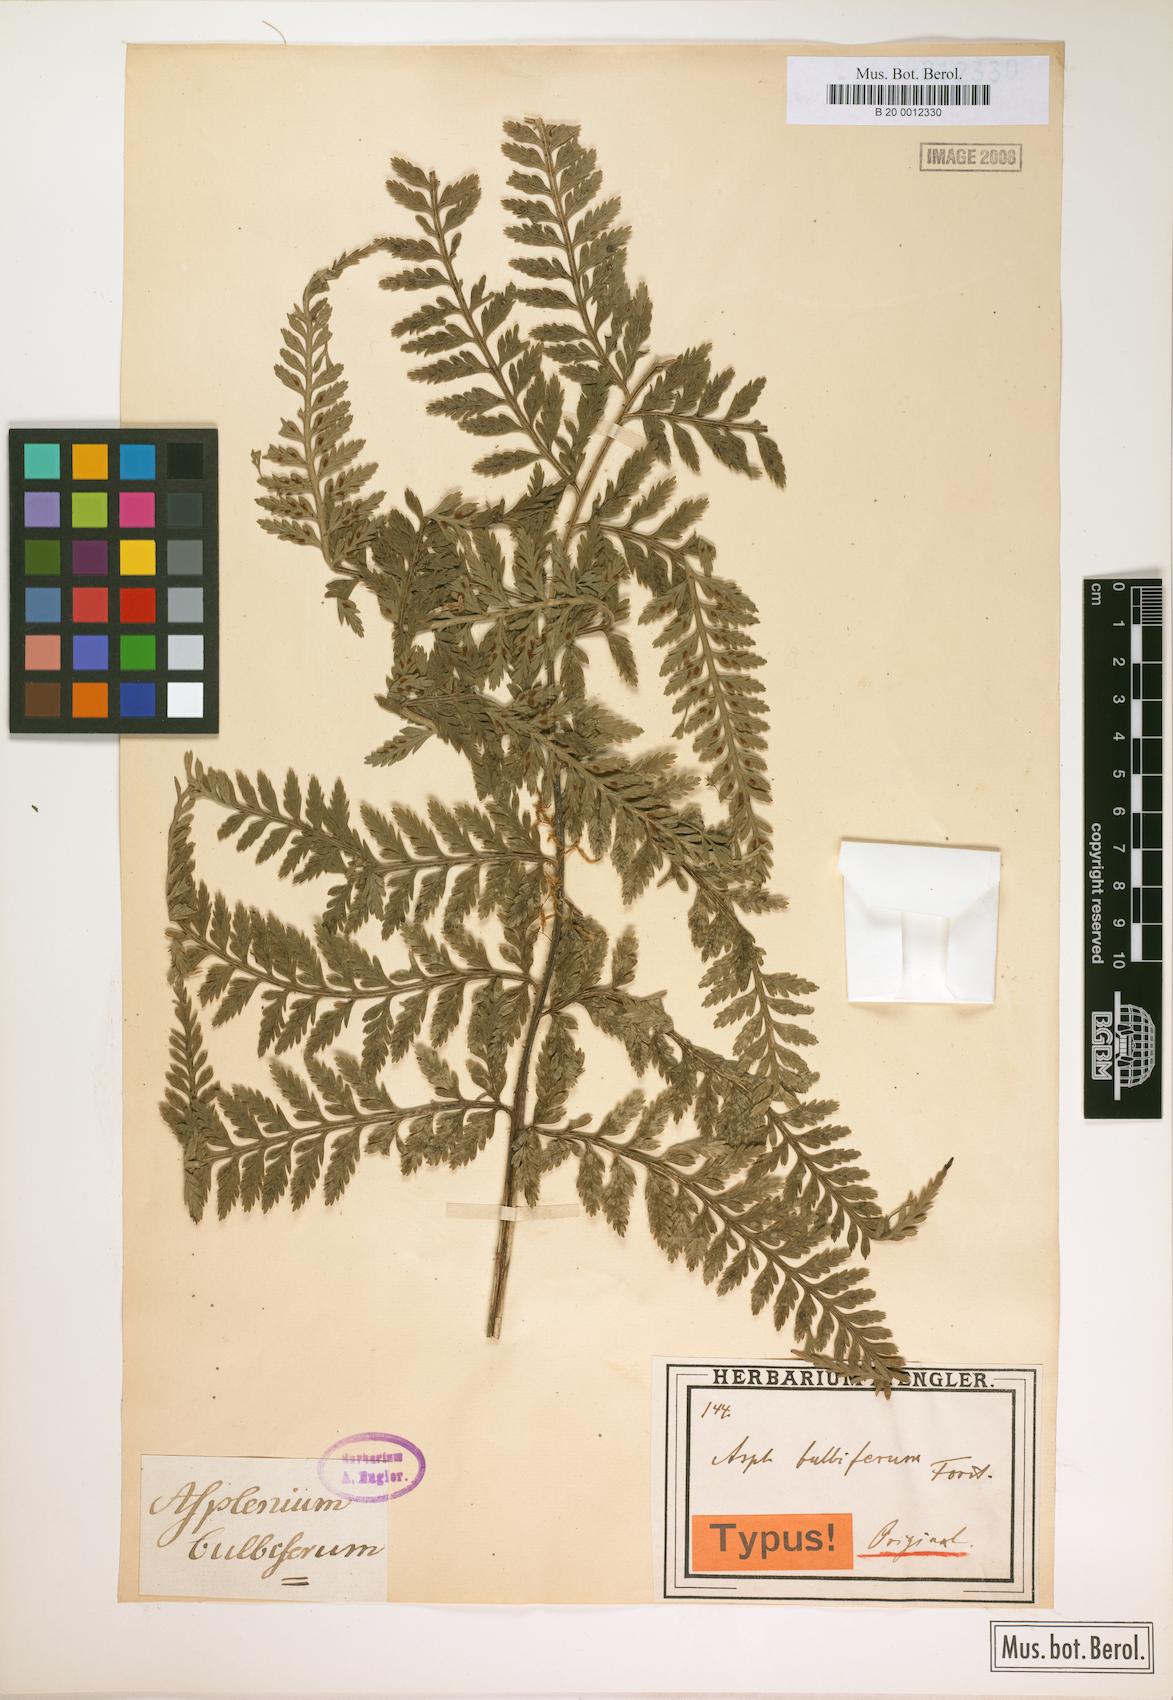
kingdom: Plantae
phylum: Tracheophyta
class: Polypodiopsida
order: Polypodiales
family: Aspleniaceae
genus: Asplenium
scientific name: Asplenium bulbiferum
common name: Mother fern
